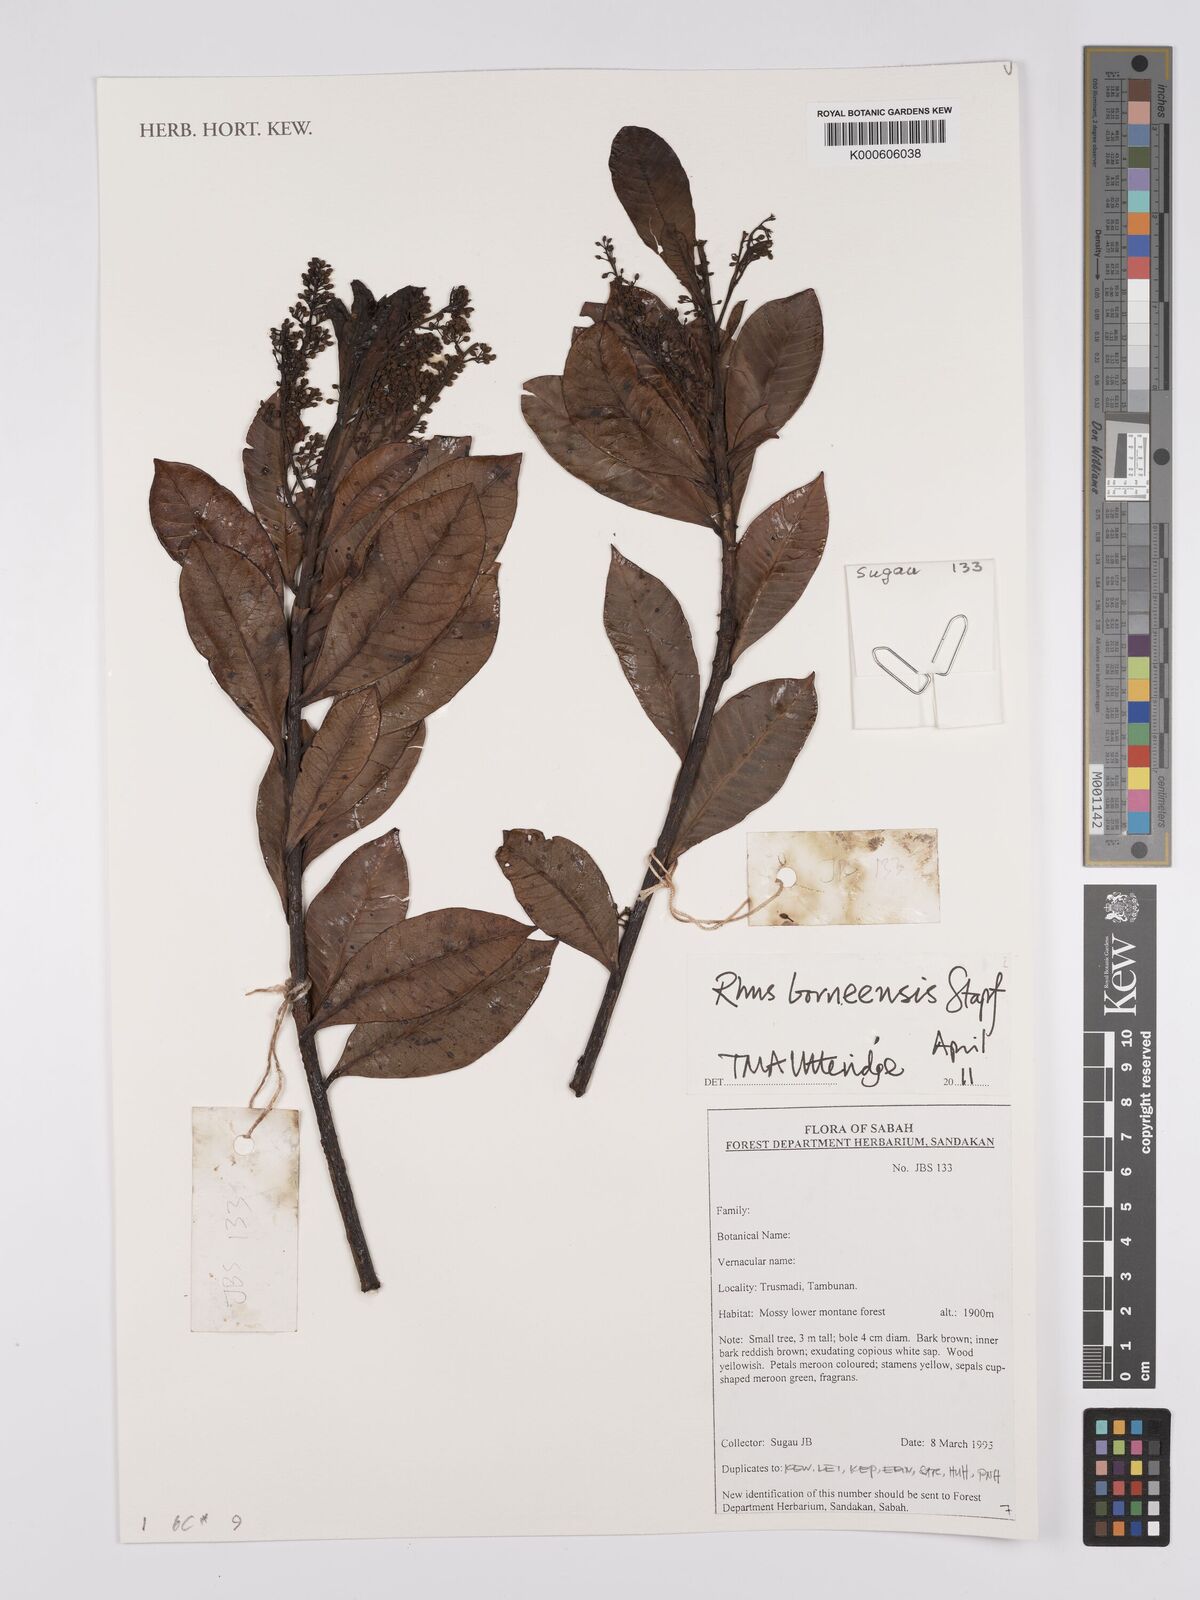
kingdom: Plantae
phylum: Tracheophyta
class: Magnoliopsida
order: Sapindales
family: Anacardiaceae
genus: Toxicodendron
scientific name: Toxicodendron borneense
